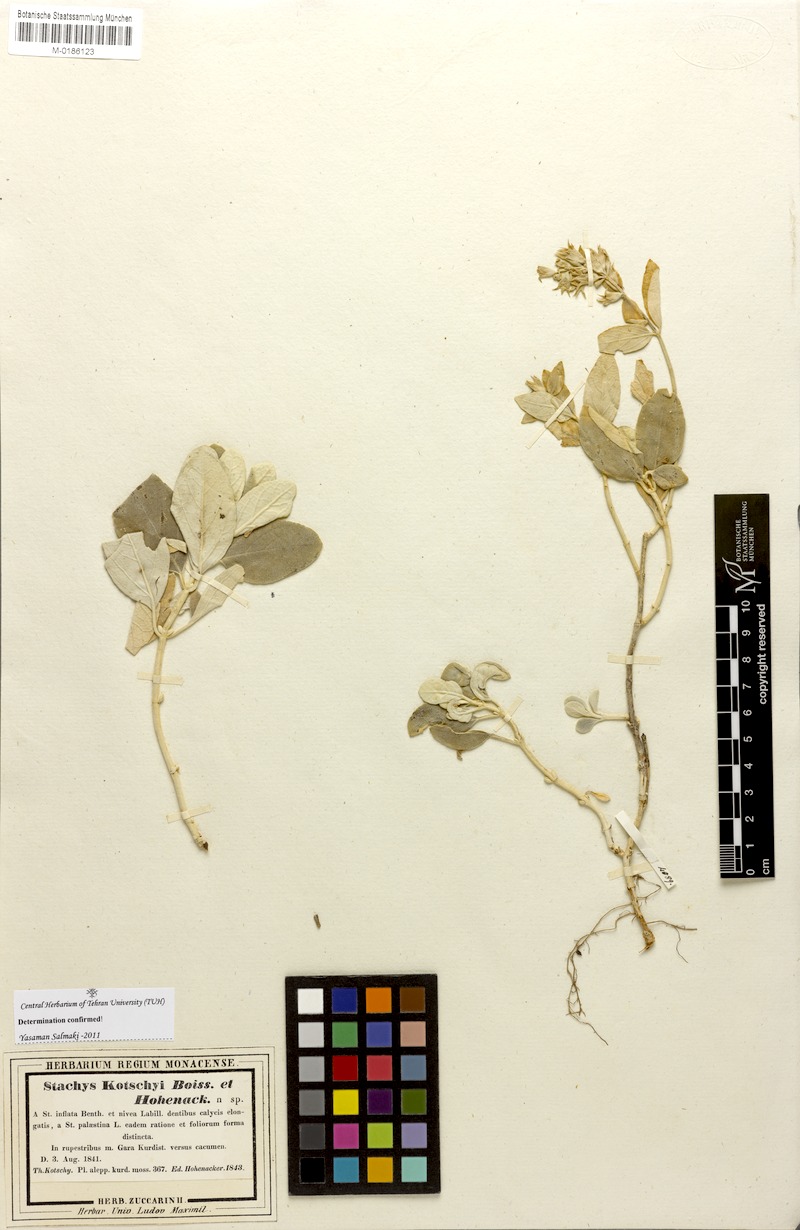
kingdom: Plantae
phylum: Tracheophyta
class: Magnoliopsida
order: Lamiales
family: Lamiaceae
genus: Stachys
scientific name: Stachys kotschyi
